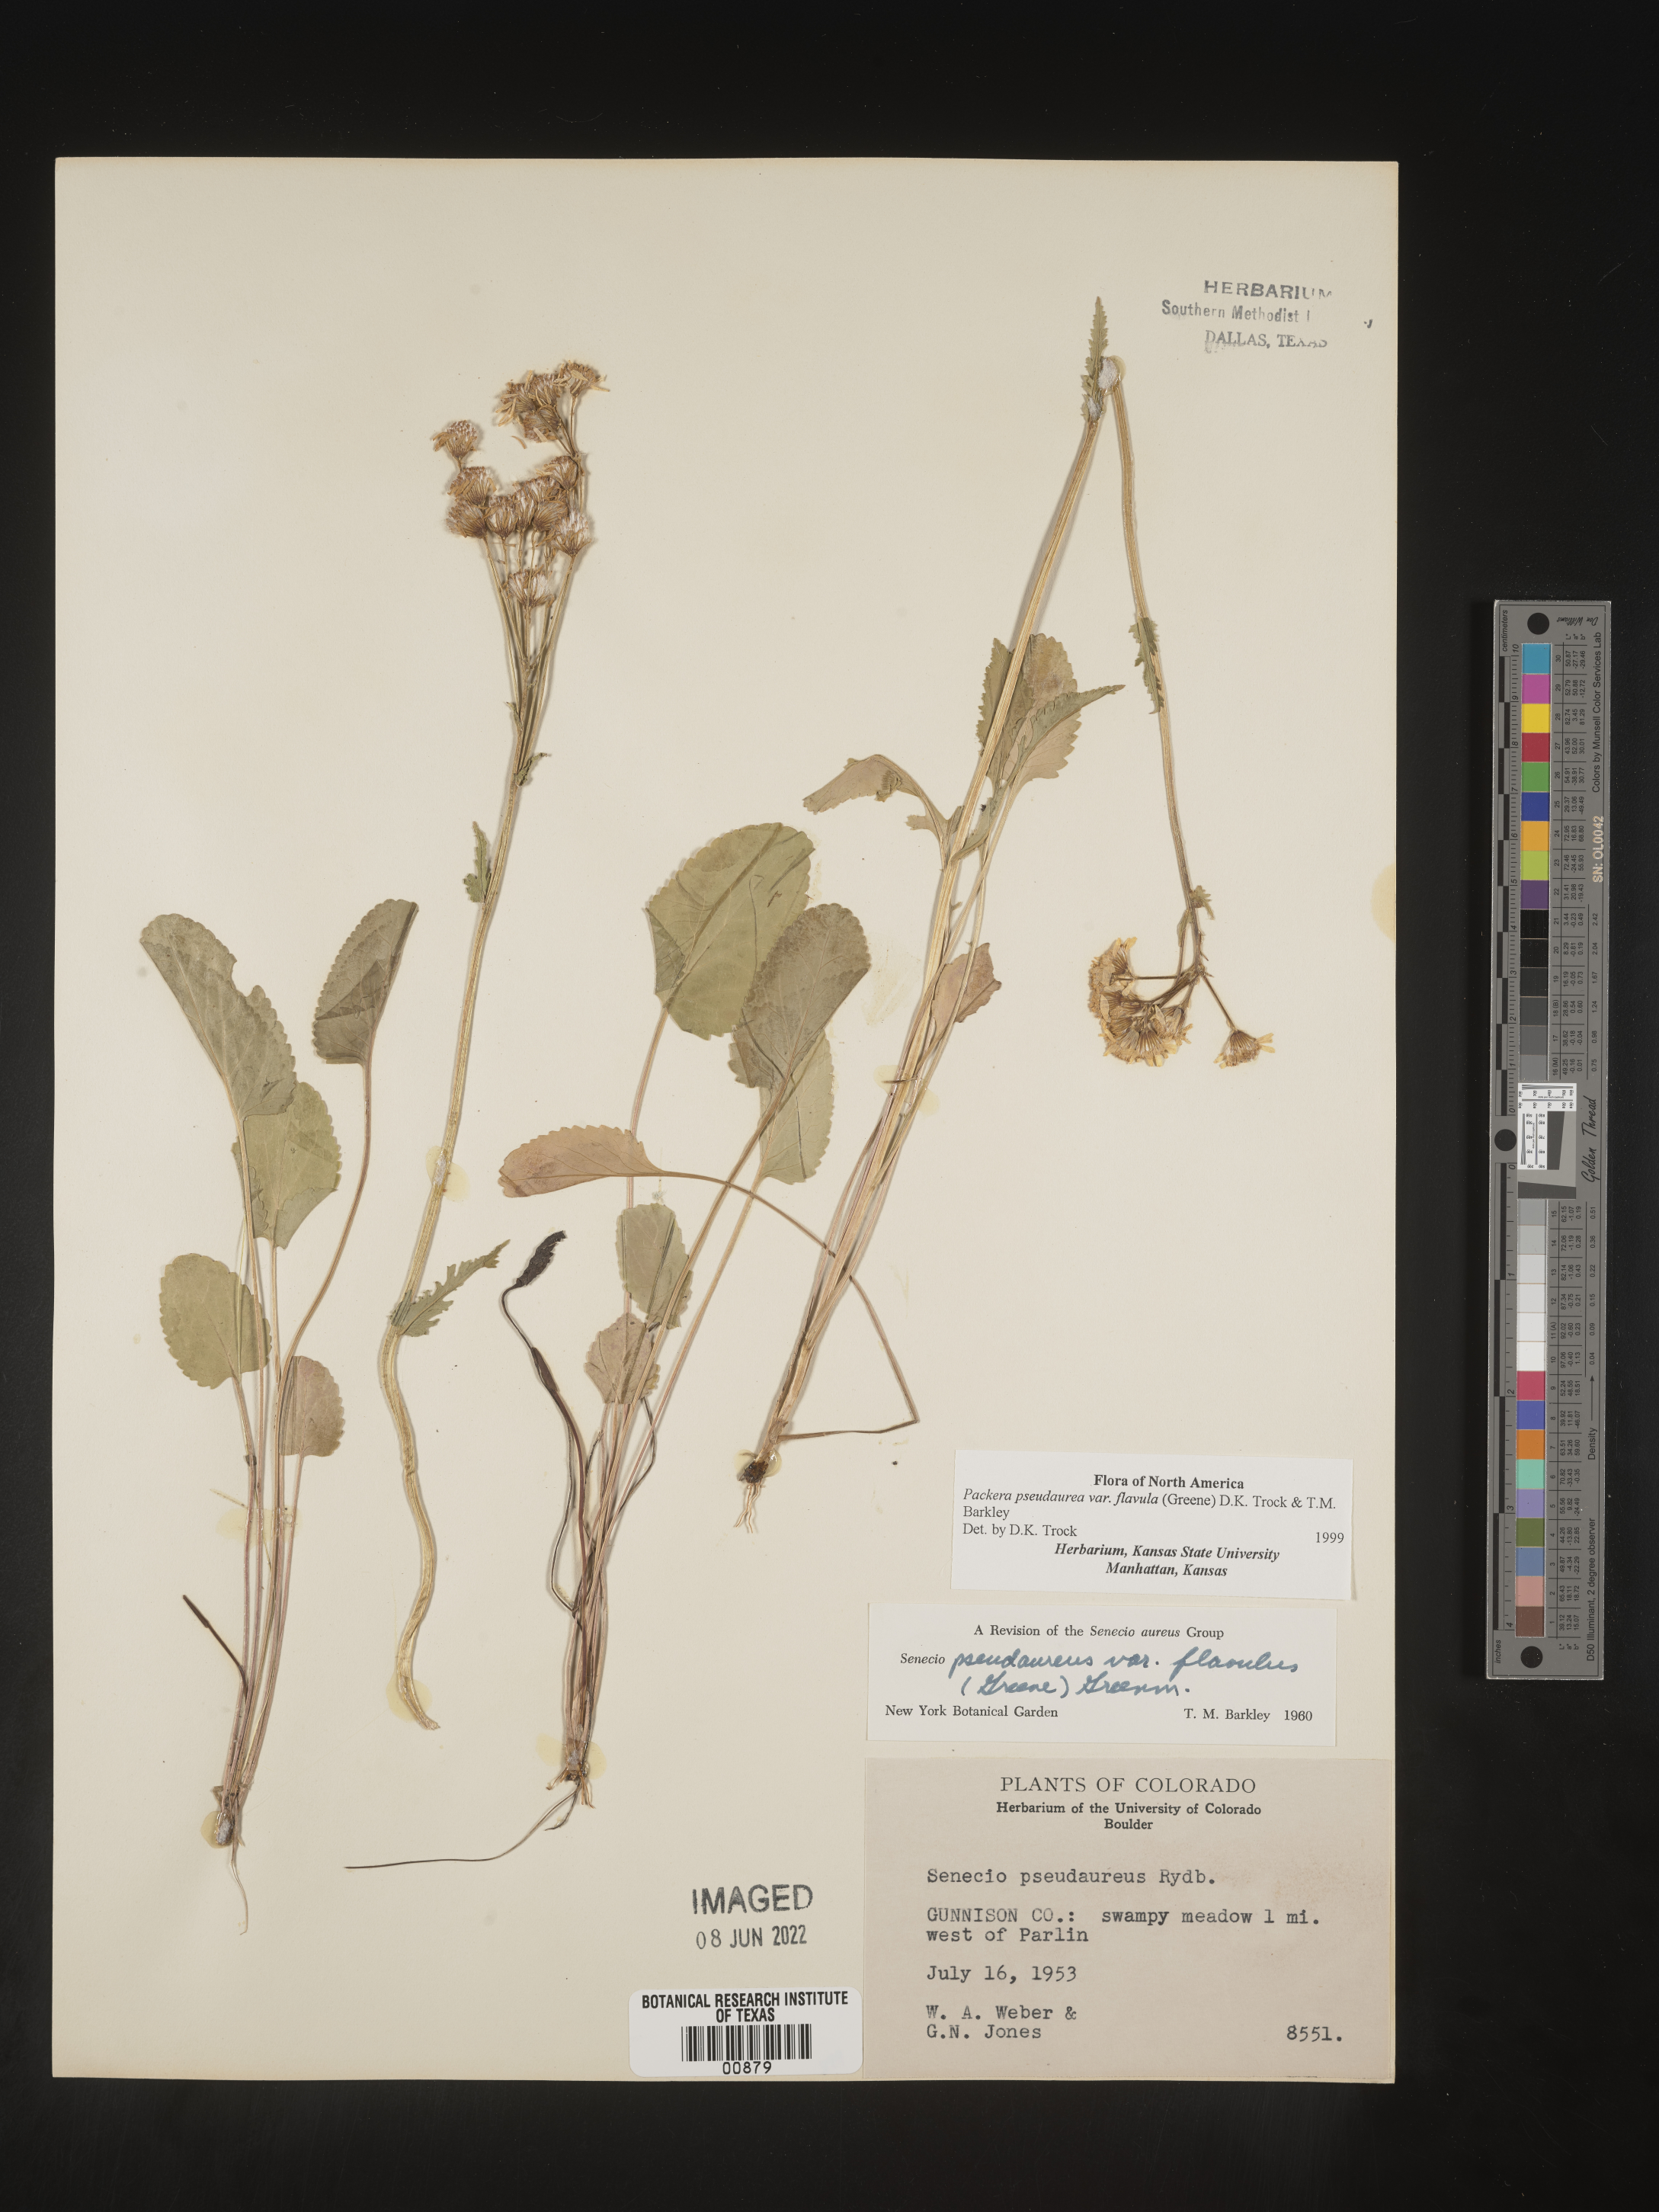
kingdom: Plantae
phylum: Tracheophyta
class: Magnoliopsida
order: Asterales
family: Asteraceae
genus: Packera
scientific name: Packera pseudaurea
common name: False-gold groundsel
